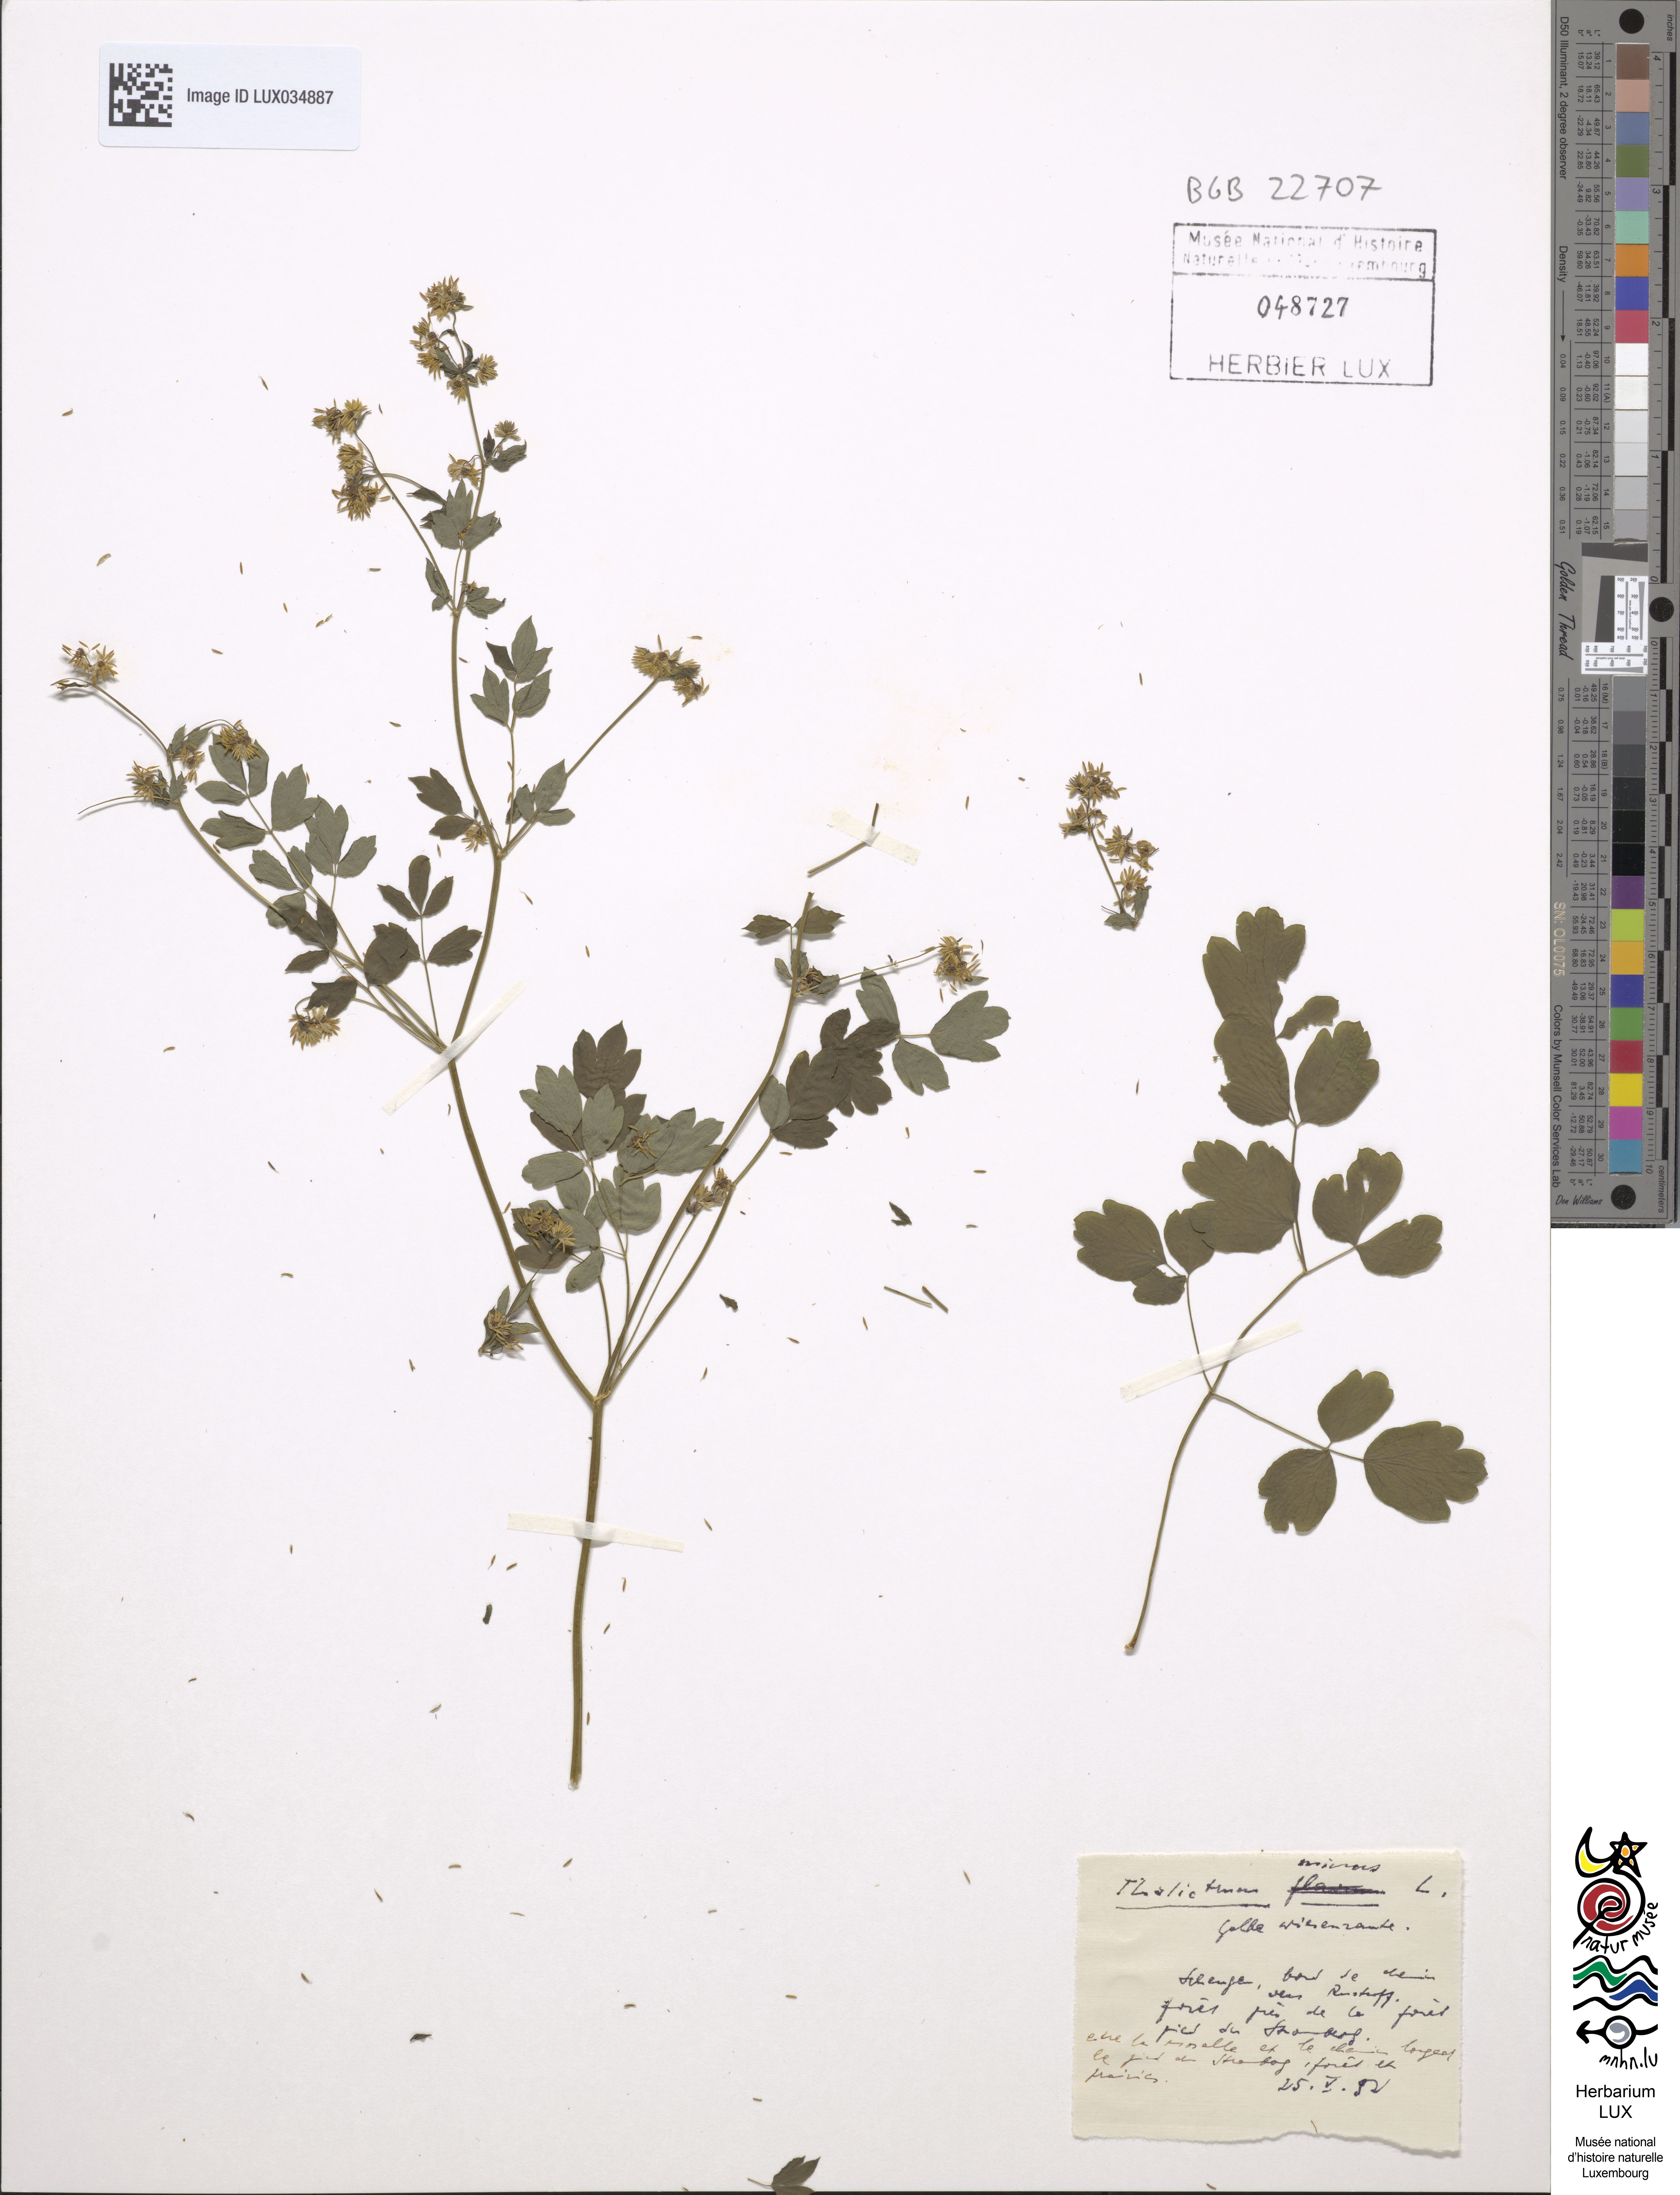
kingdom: Plantae
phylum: Tracheophyta
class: Magnoliopsida
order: Ranunculales
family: Ranunculaceae
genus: Thalictrum
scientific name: Thalictrum minus
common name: Lesser meadow-rue
